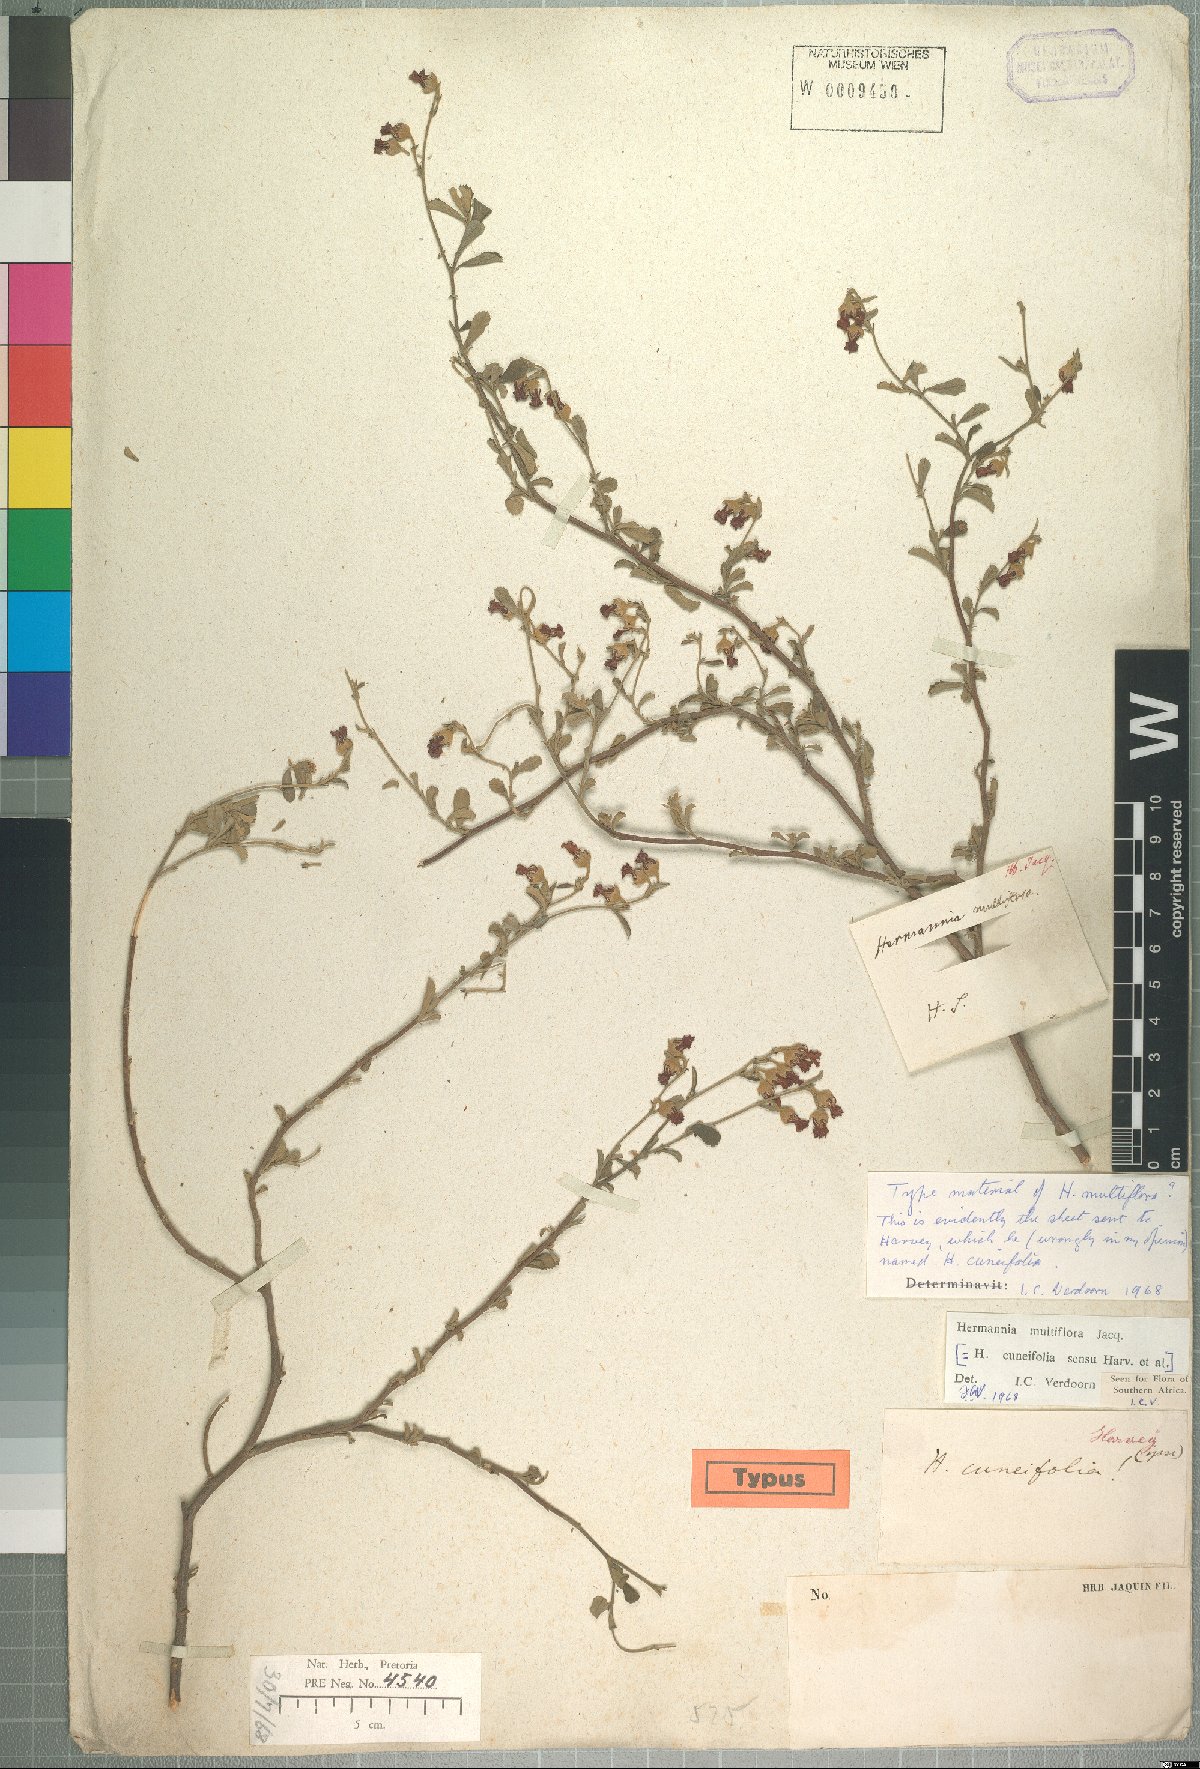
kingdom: Plantae
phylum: Tracheophyta
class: Magnoliopsida
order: Malvales
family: Malvaceae
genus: Hermannia
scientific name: Hermannia multiflora
